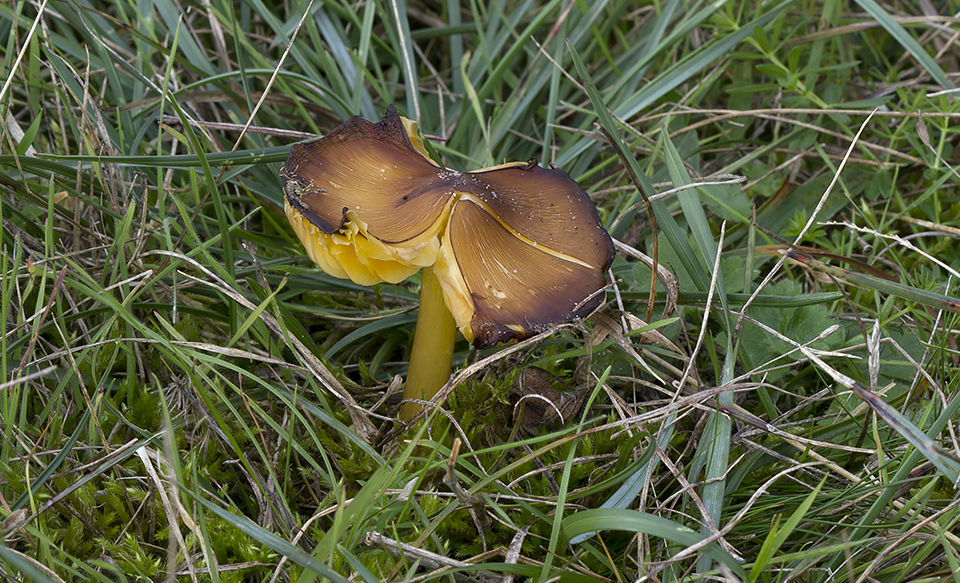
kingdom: Fungi
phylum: Basidiomycota
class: Agaricomycetes
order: Agaricales
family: Hygrophoraceae
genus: Hygrocybe
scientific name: Hygrocybe spadicea
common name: daddelbrun vokshat
